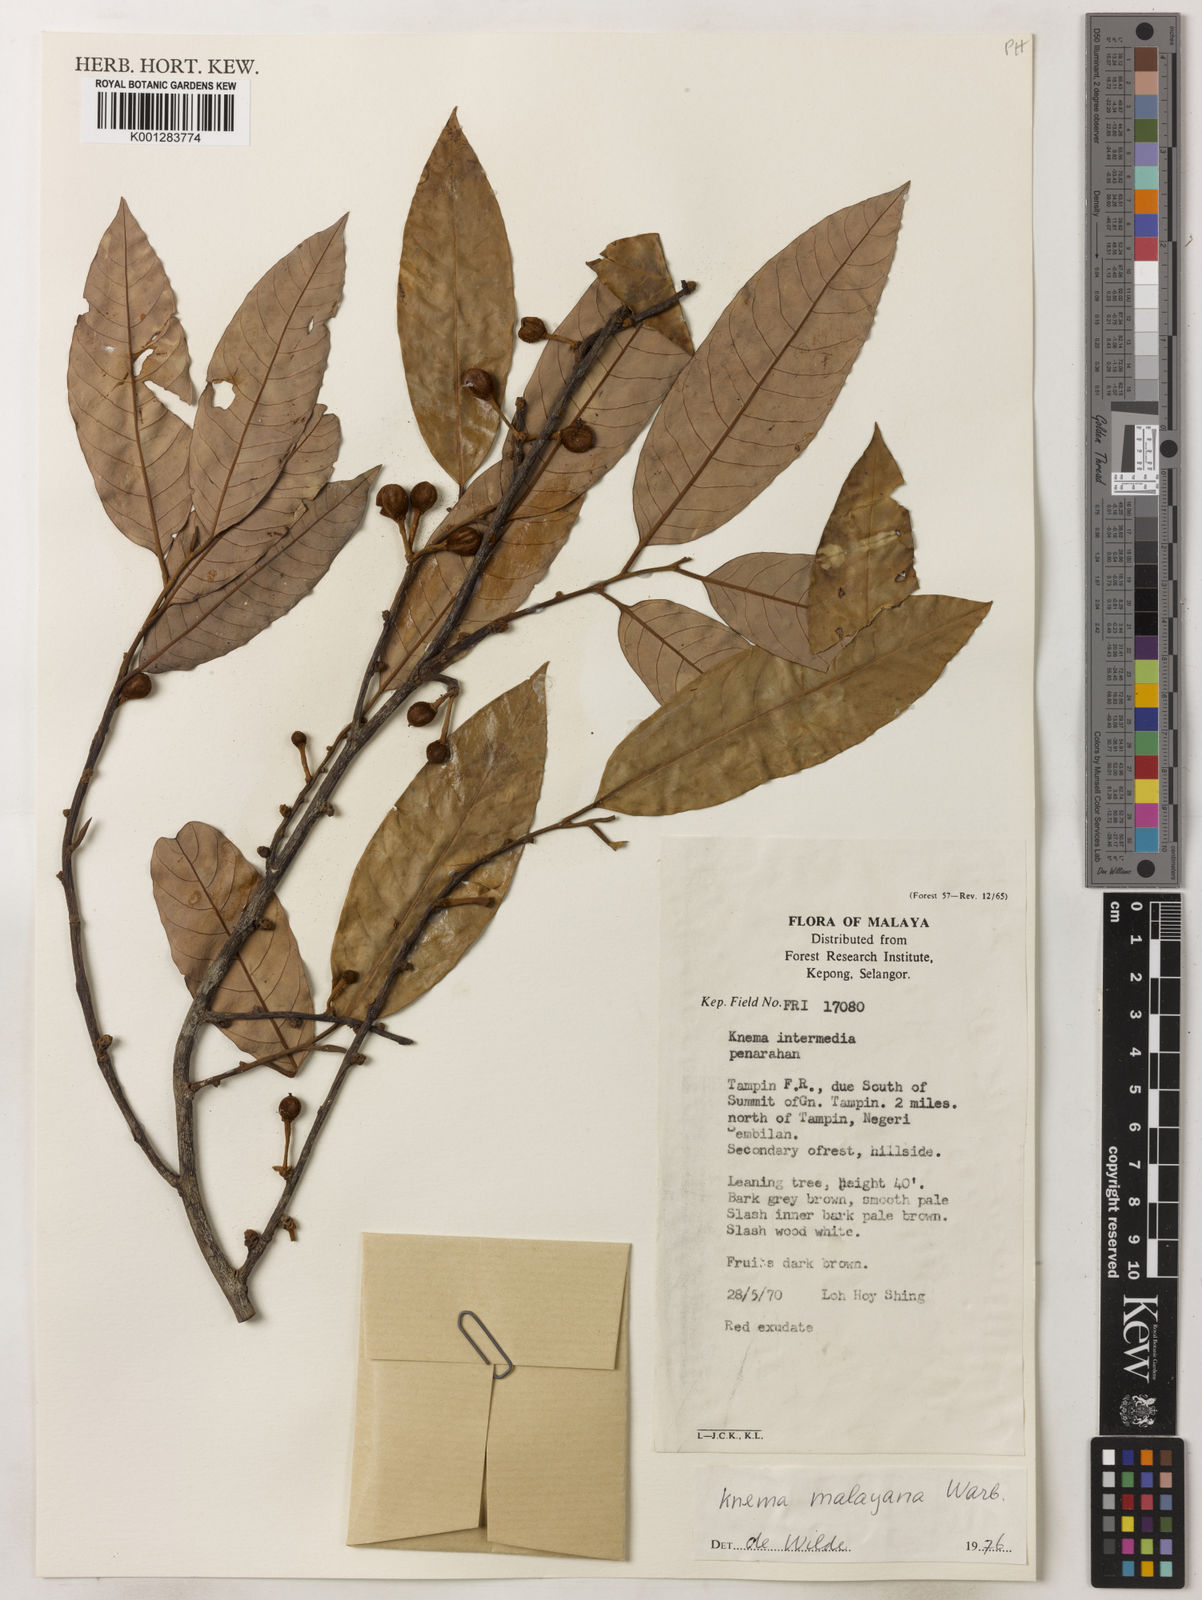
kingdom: Plantae
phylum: Tracheophyta
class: Magnoliopsida
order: Magnoliales
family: Myristicaceae
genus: Knema
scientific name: Knema malayana
